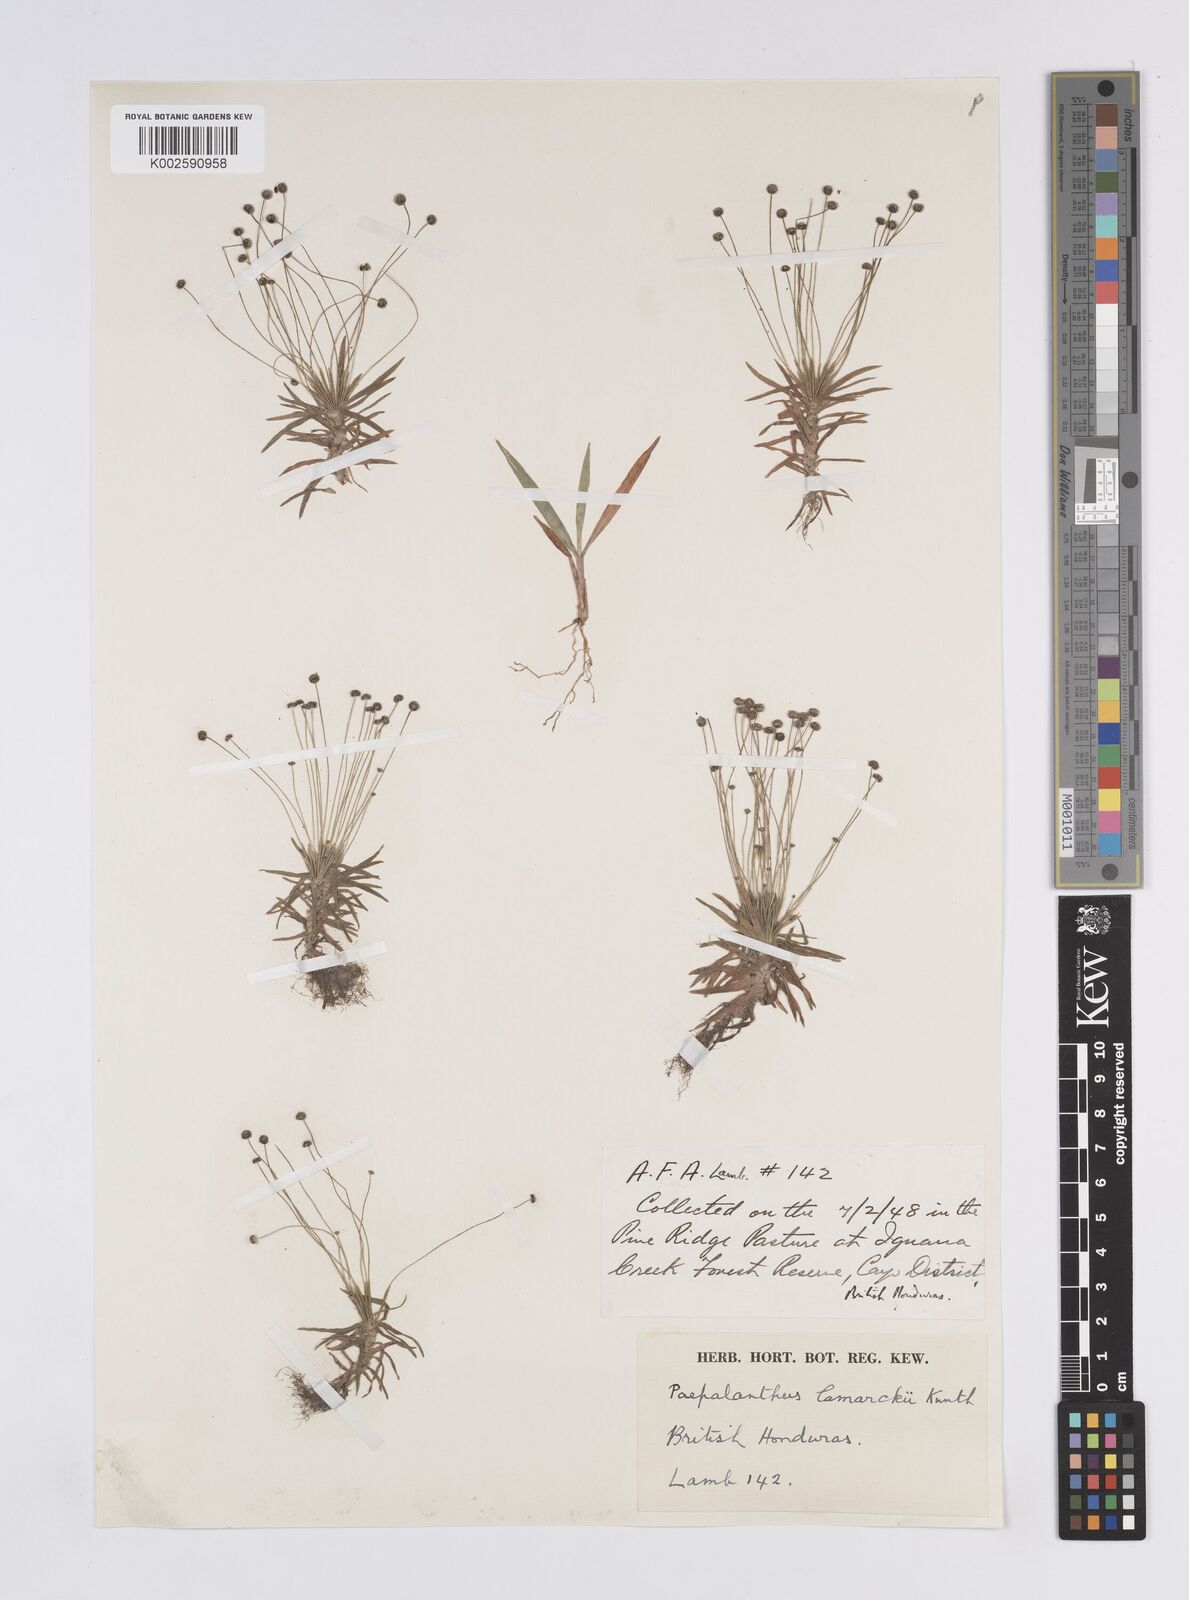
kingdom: Plantae
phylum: Tracheophyta
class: Liliopsida
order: Poales
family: Eriocaulaceae
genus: Paepalanthus
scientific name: Paepalanthus lamarckii
